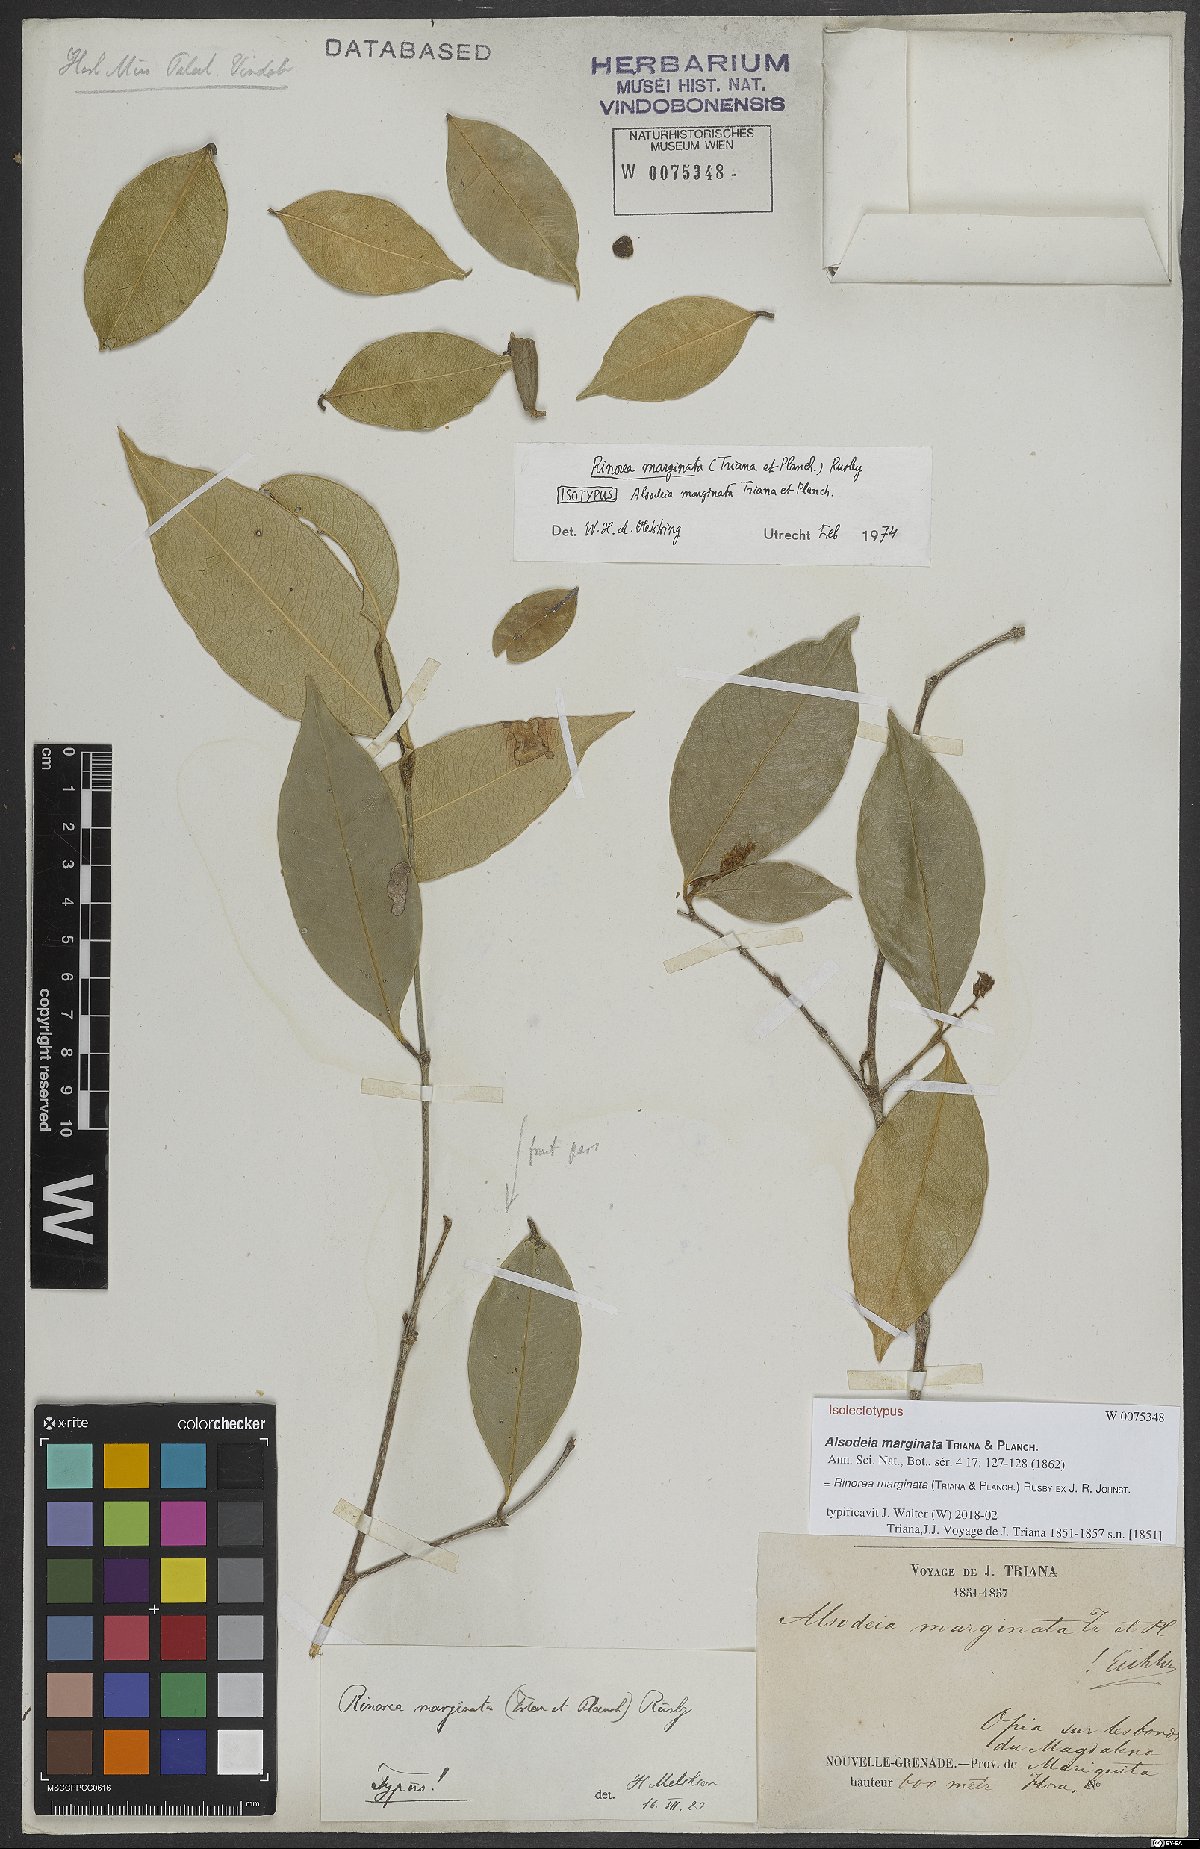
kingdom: Plantae
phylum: Tracheophyta
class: Magnoliopsida
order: Malpighiales
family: Violaceae
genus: Rinorea
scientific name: Rinorea marginata
